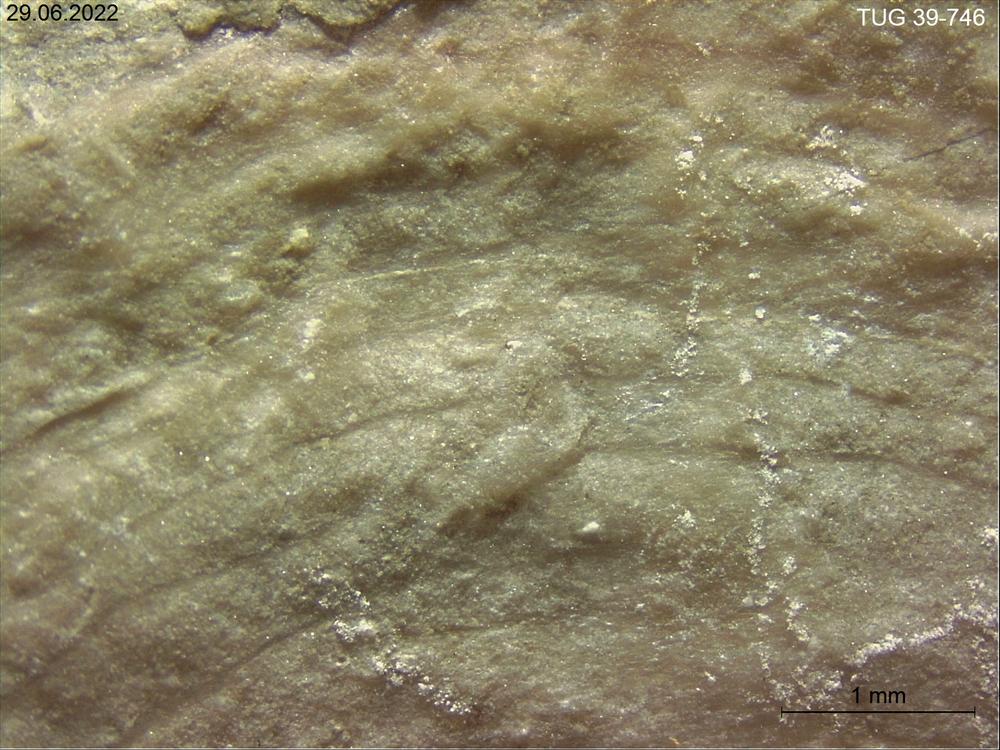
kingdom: Animalia
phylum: Porifera
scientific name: Porifera
